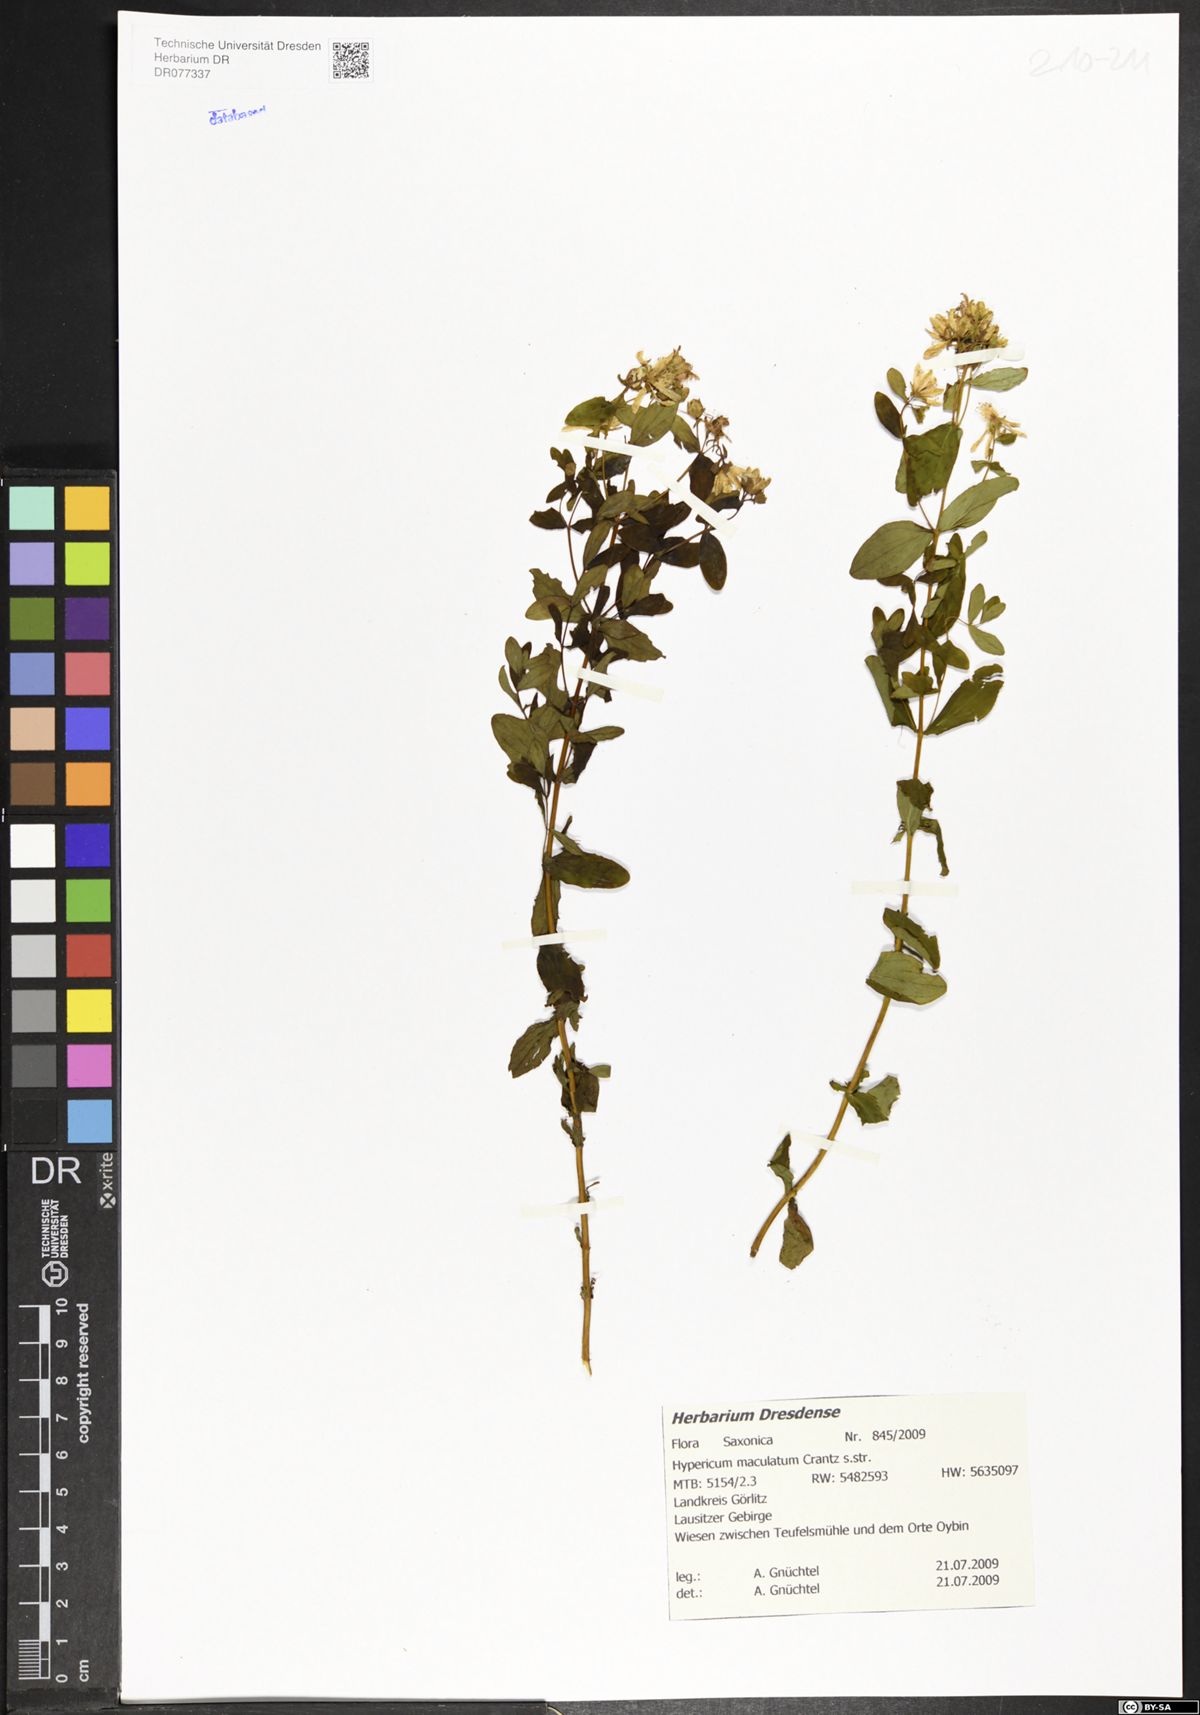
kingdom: Plantae
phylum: Tracheophyta
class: Magnoliopsida
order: Malpighiales
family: Hypericaceae
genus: Hypericum
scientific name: Hypericum maculatum
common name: Imperforate st. john's-wort
